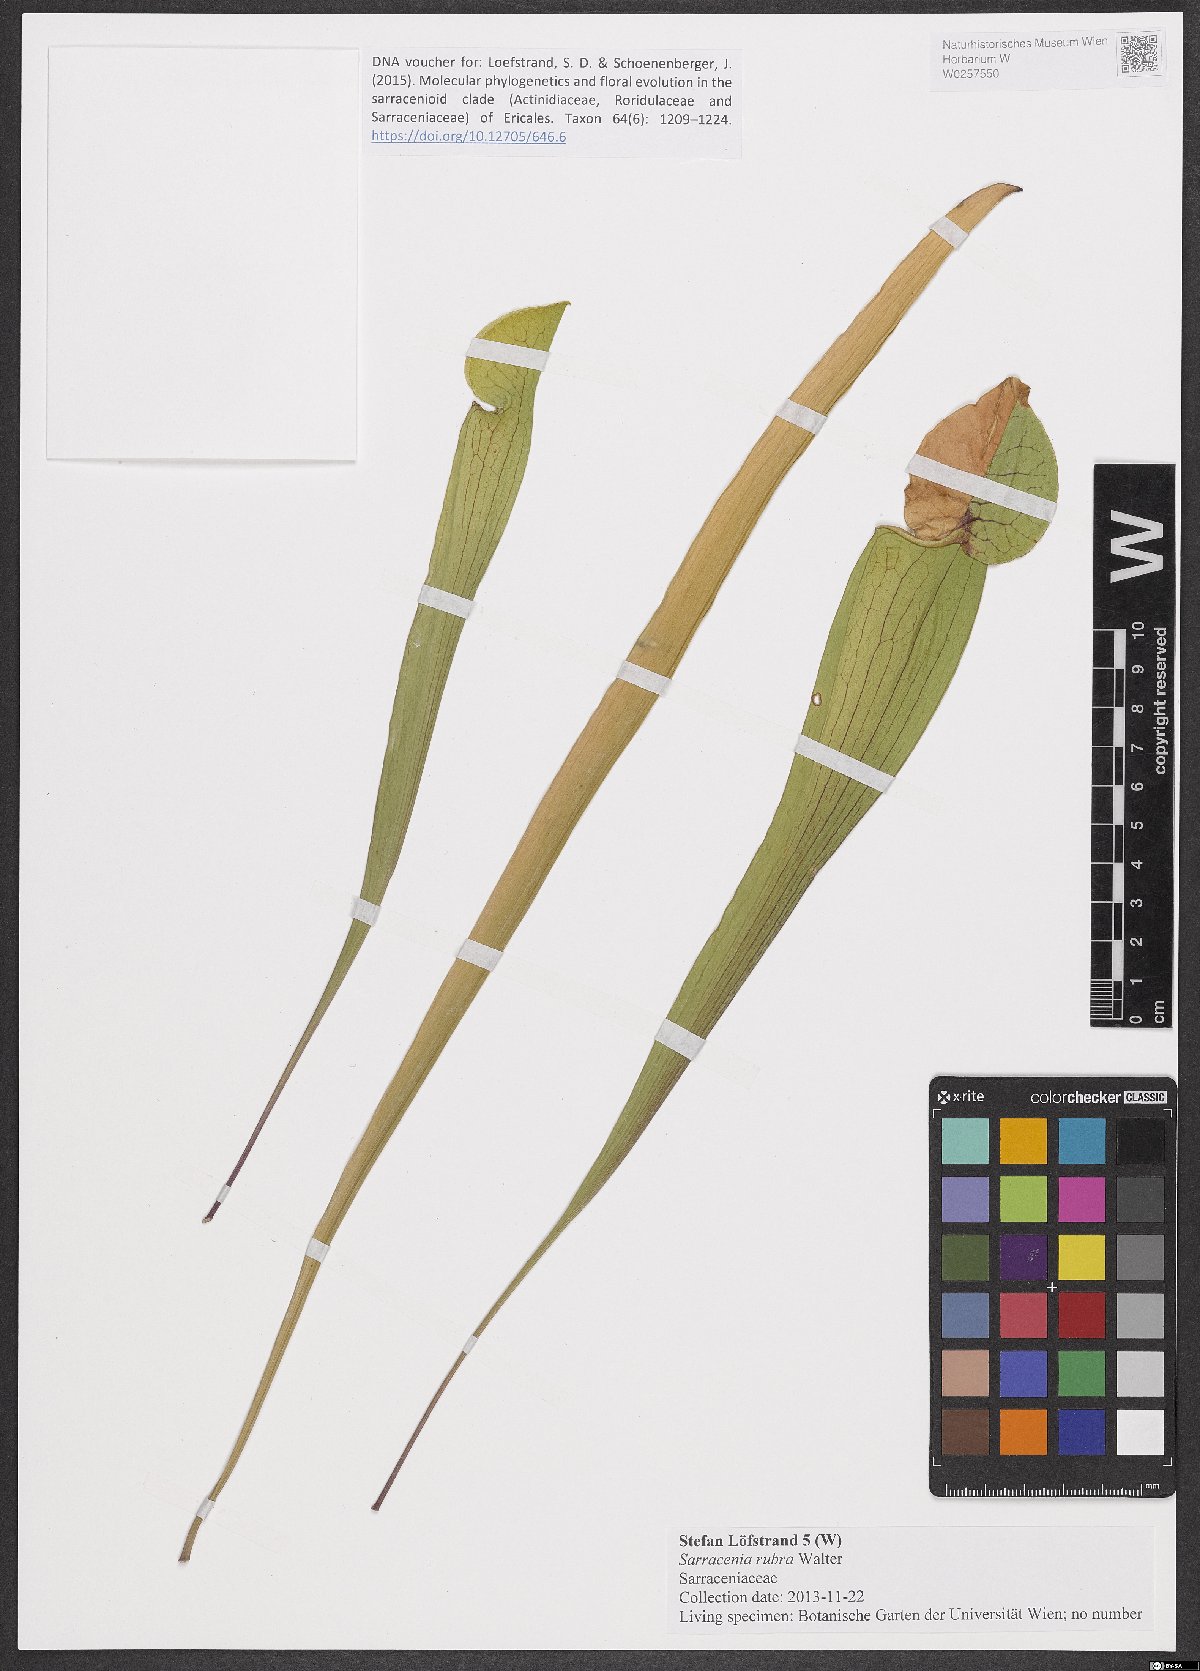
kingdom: Plantae
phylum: Tracheophyta
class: Magnoliopsida
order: Ericales
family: Sarraceniaceae
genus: Sarracenia
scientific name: Sarracenia rubra
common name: Sweet pitcherplant
